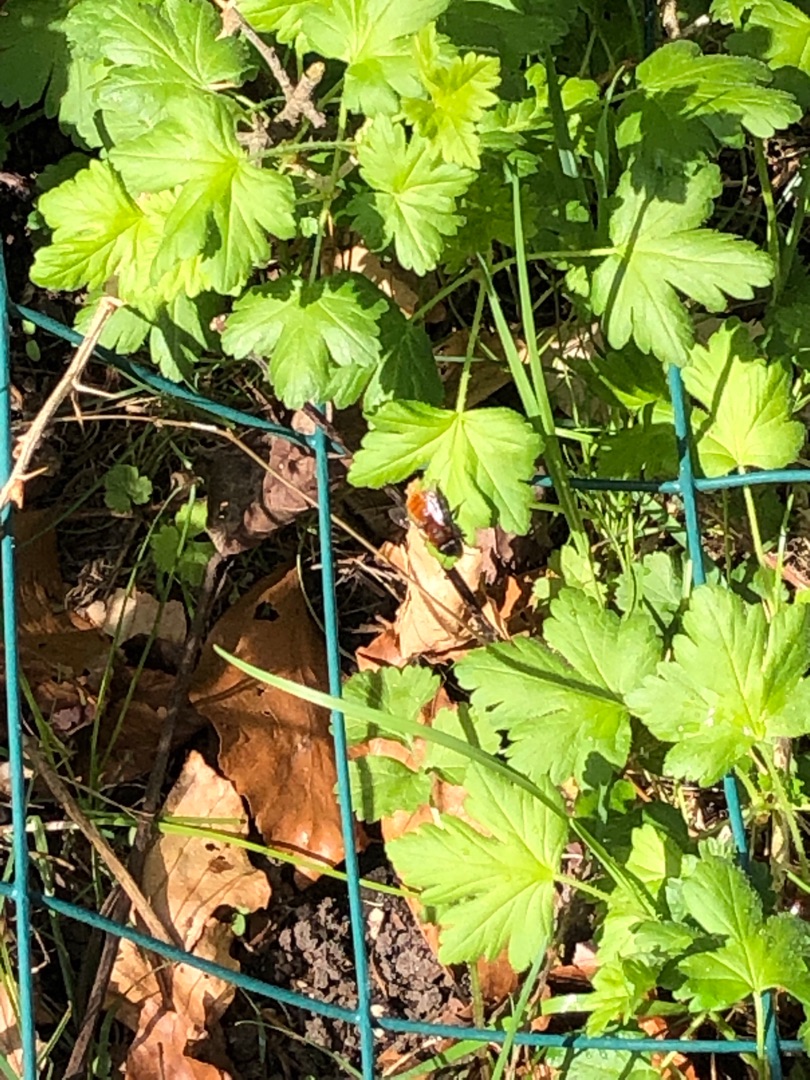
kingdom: Animalia
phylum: Arthropoda
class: Insecta
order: Hymenoptera
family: Andrenidae
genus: Andrena
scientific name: Andrena fulva
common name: Rødpelset jordbi
